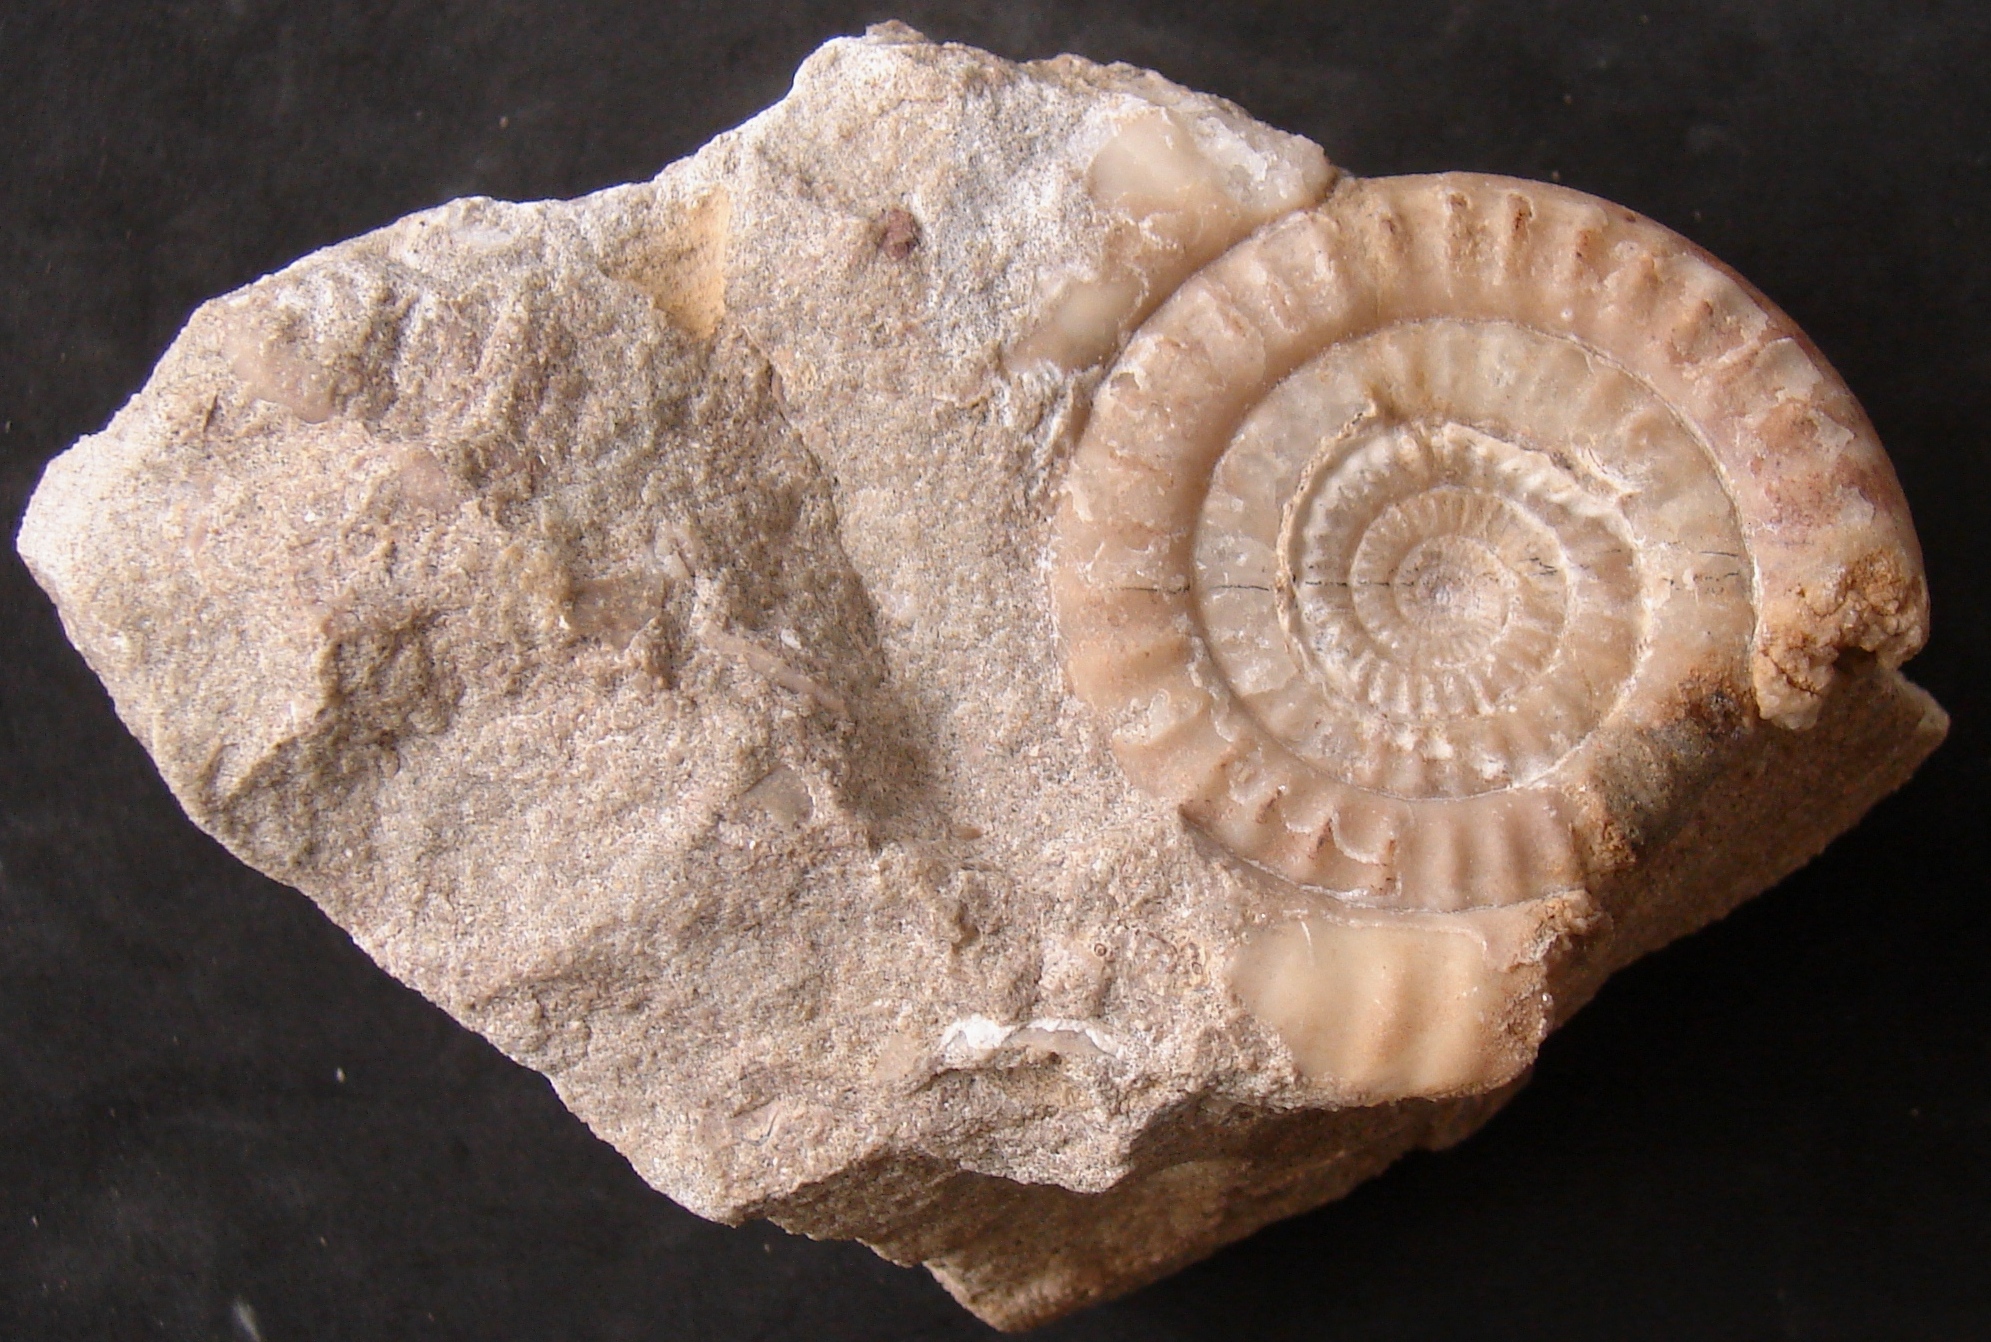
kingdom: Animalia
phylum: Mollusca
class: Cephalopoda
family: Psiloceratidae
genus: Caloceras
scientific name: Caloceras pirondi
